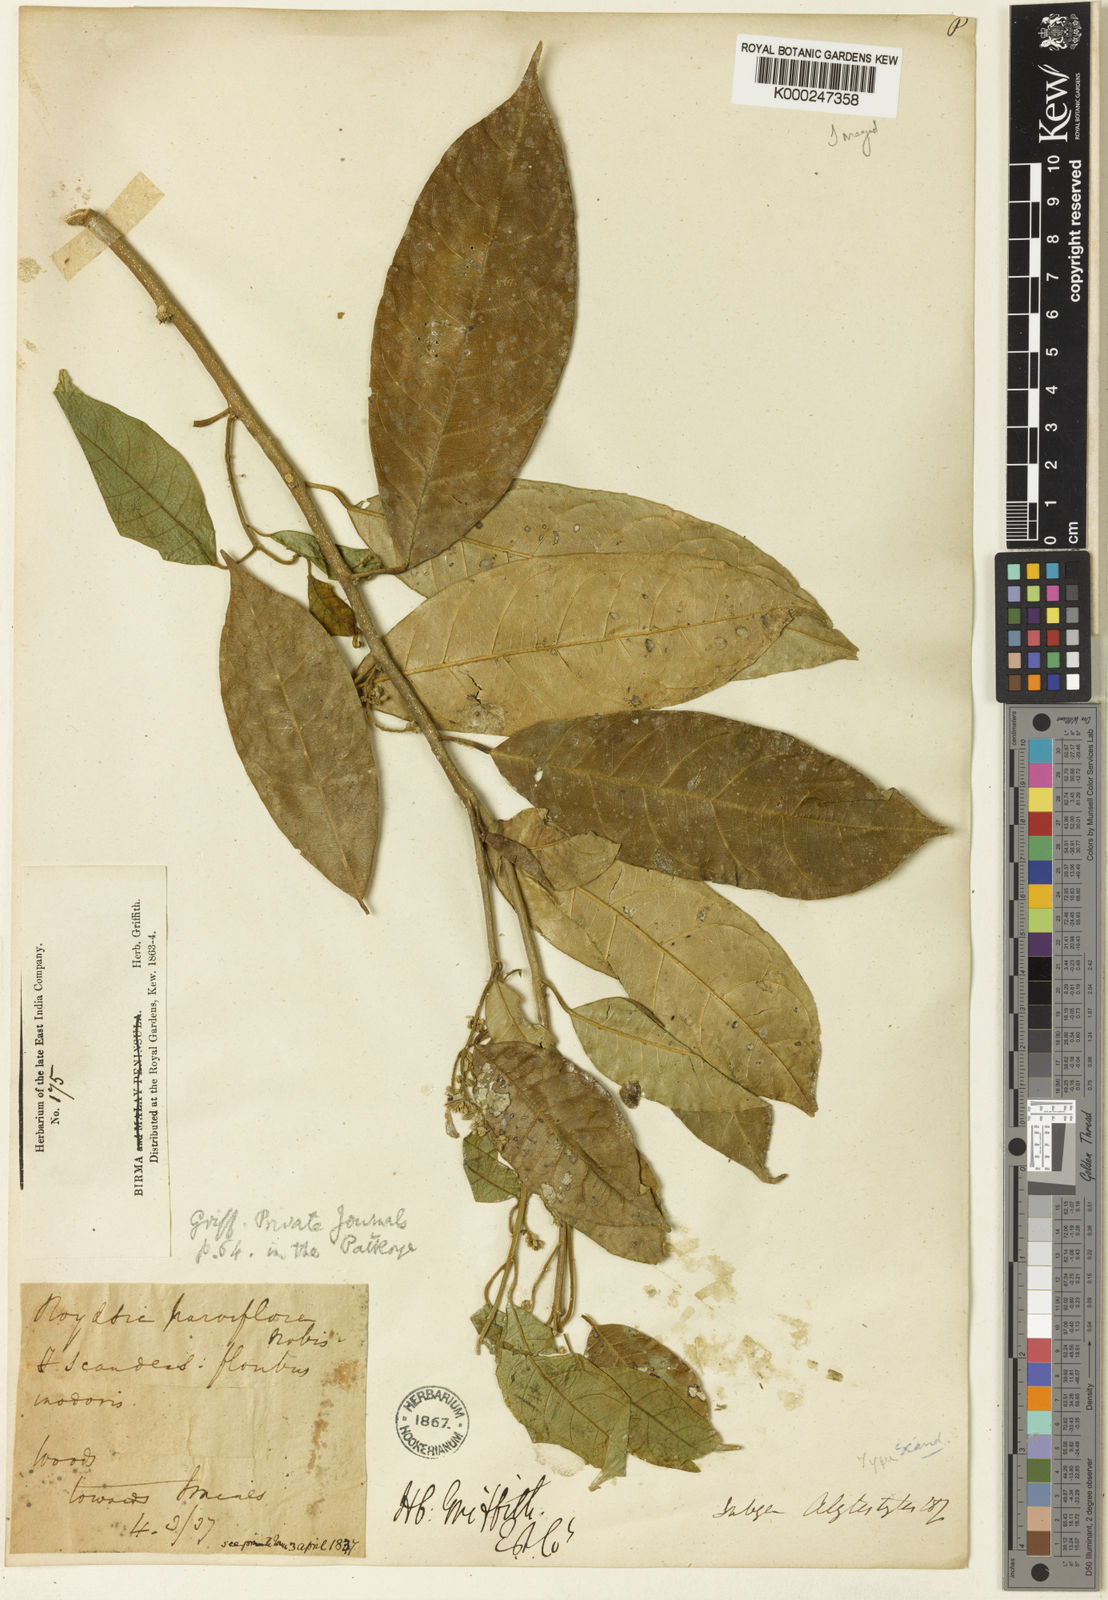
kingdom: Plantae
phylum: Tracheophyta
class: Magnoliopsida
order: Brassicales
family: Stixaceae
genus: Stixis
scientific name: Stixis scandens
